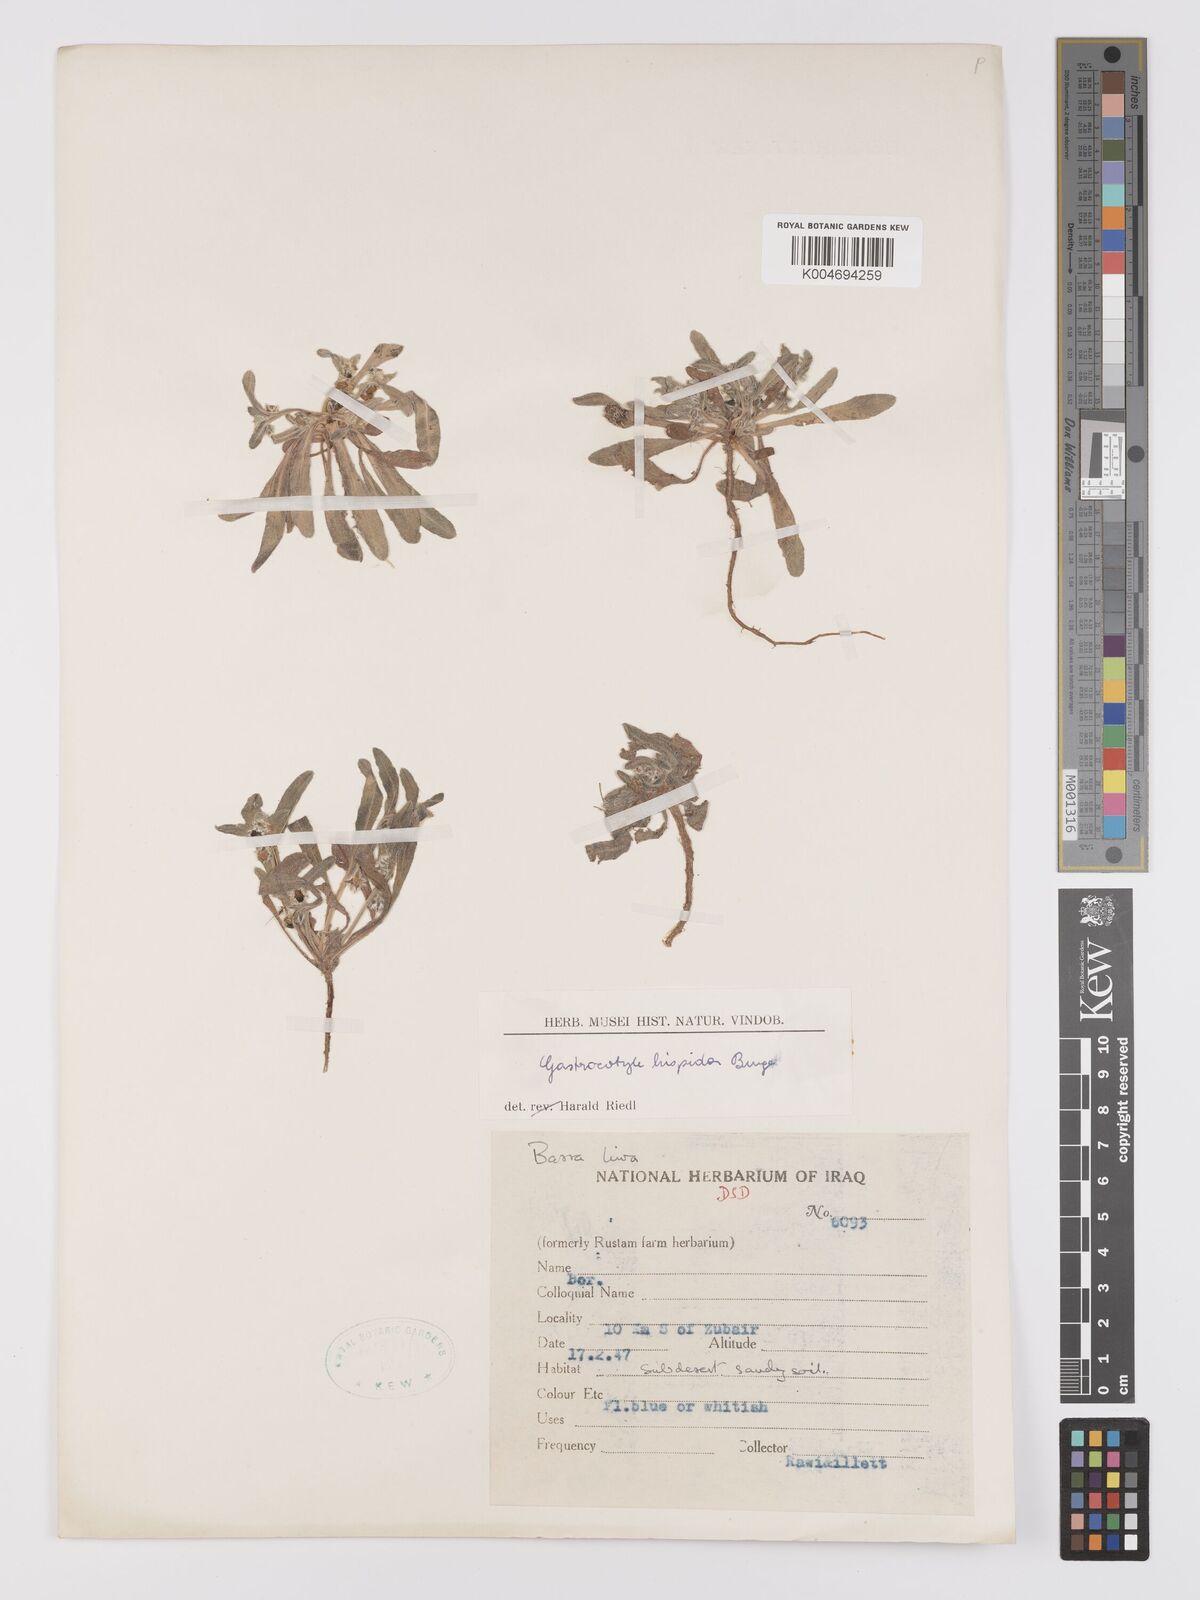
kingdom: Plantae
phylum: Tracheophyta
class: Magnoliopsida
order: Boraginales
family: Boraginaceae
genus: Gastrocotyle
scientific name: Gastrocotyle hispida
